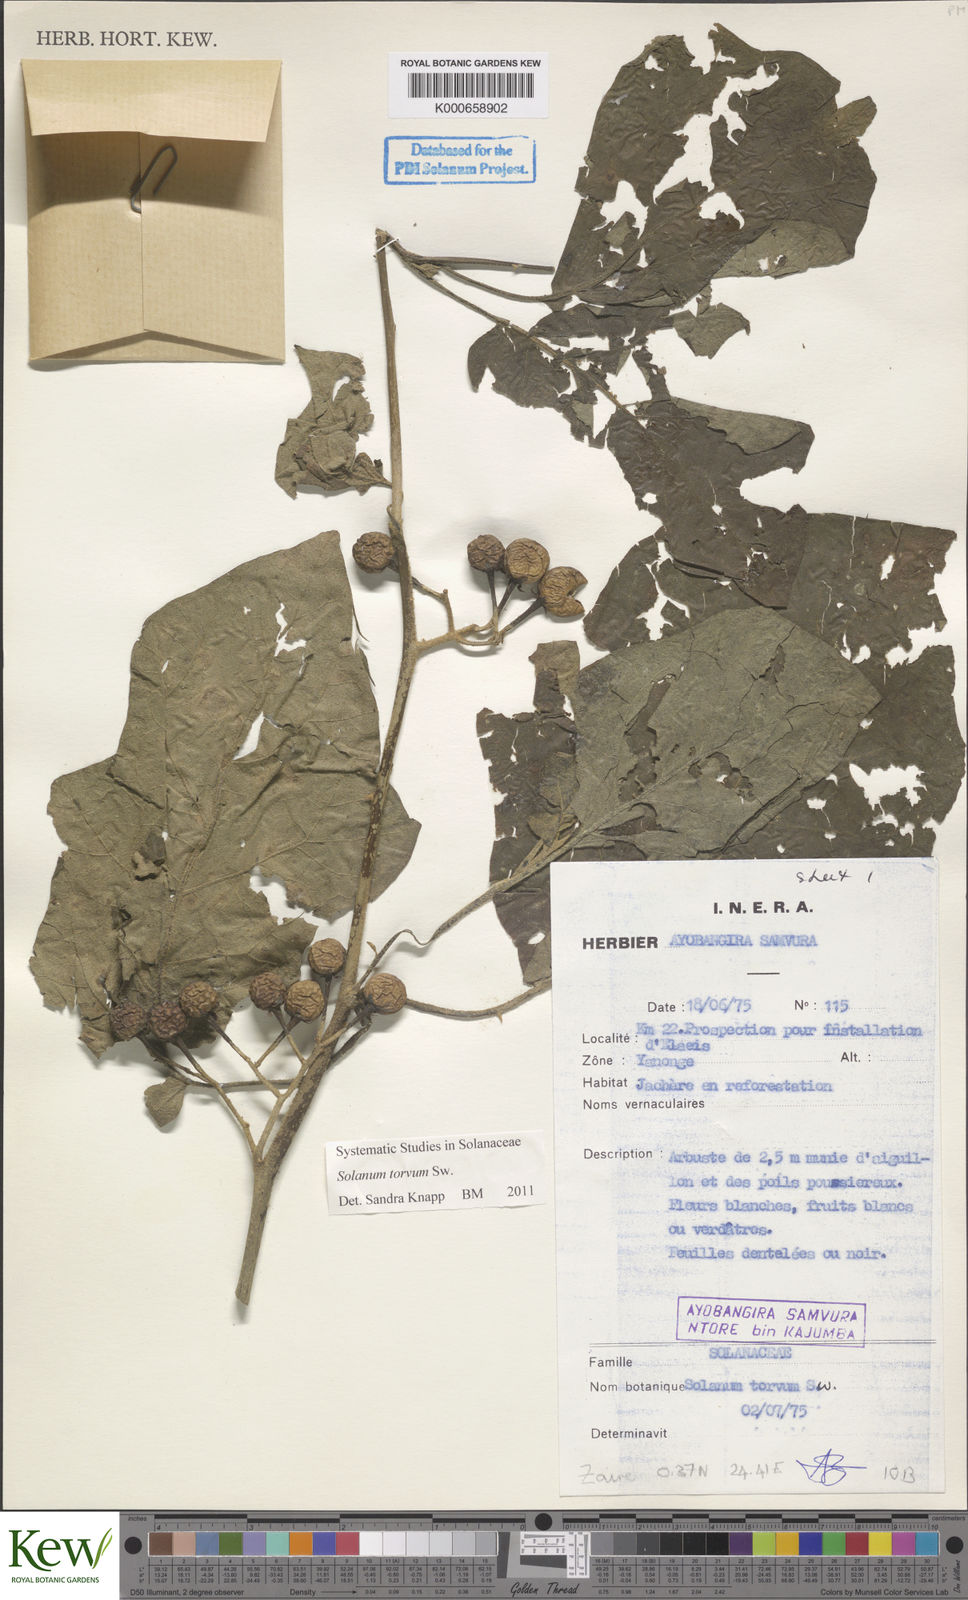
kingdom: Plantae
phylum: Tracheophyta
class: Magnoliopsida
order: Solanales
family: Solanaceae
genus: Solanum
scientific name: Solanum torvum
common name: Turkey berry
